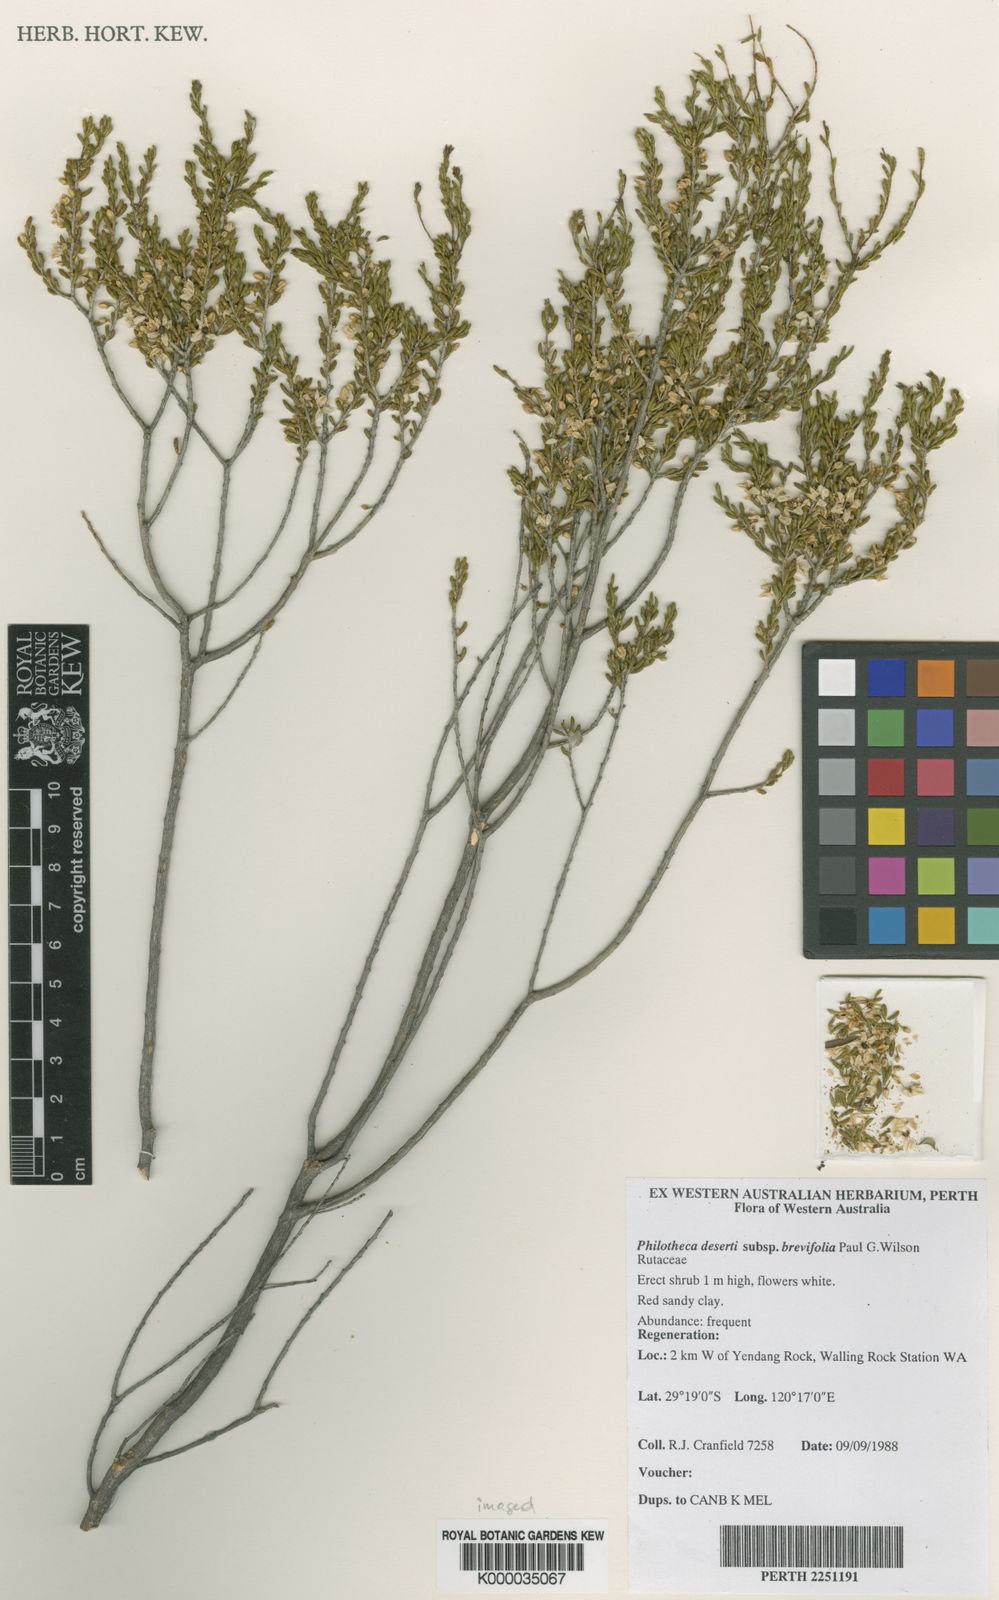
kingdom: Plantae
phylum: Tracheophyta
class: Magnoliopsida
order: Sapindales
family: Rutaceae
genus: Philotheca
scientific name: Philotheca
